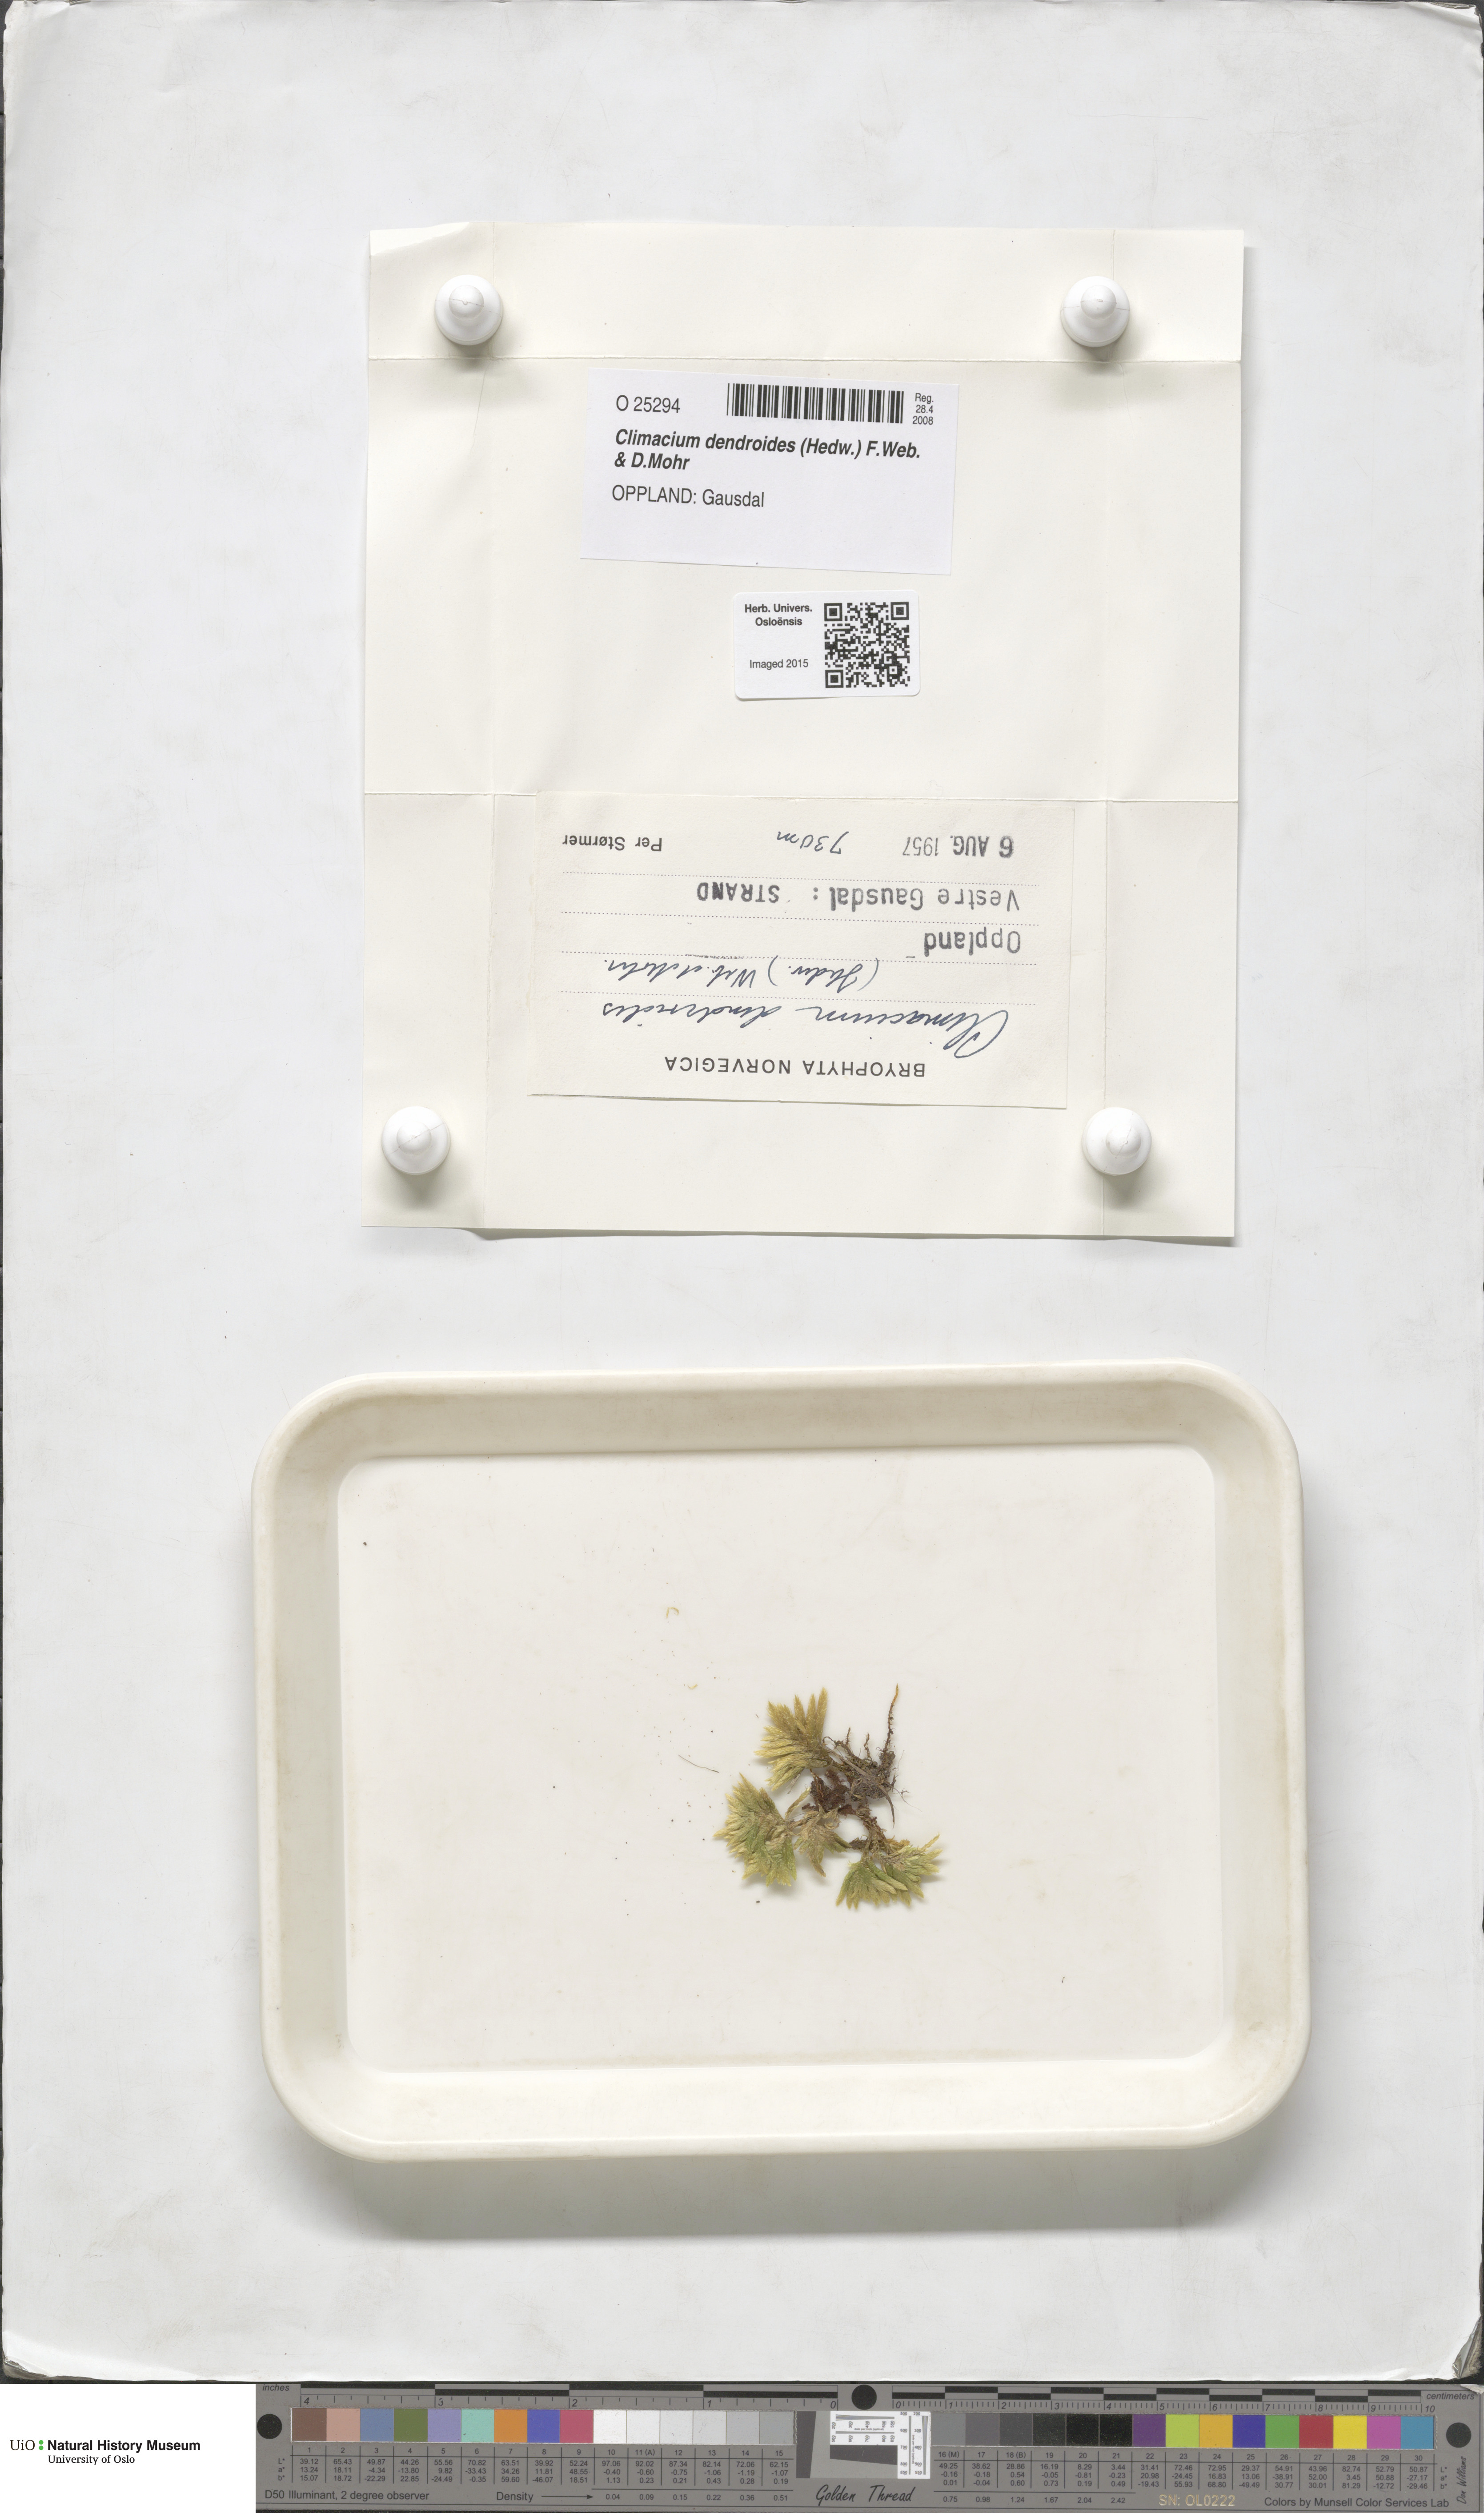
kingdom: Plantae
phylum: Bryophyta
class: Bryopsida
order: Hypnales
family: Climaciaceae
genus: Climacium
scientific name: Climacium dendroides
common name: Northern tree moss
